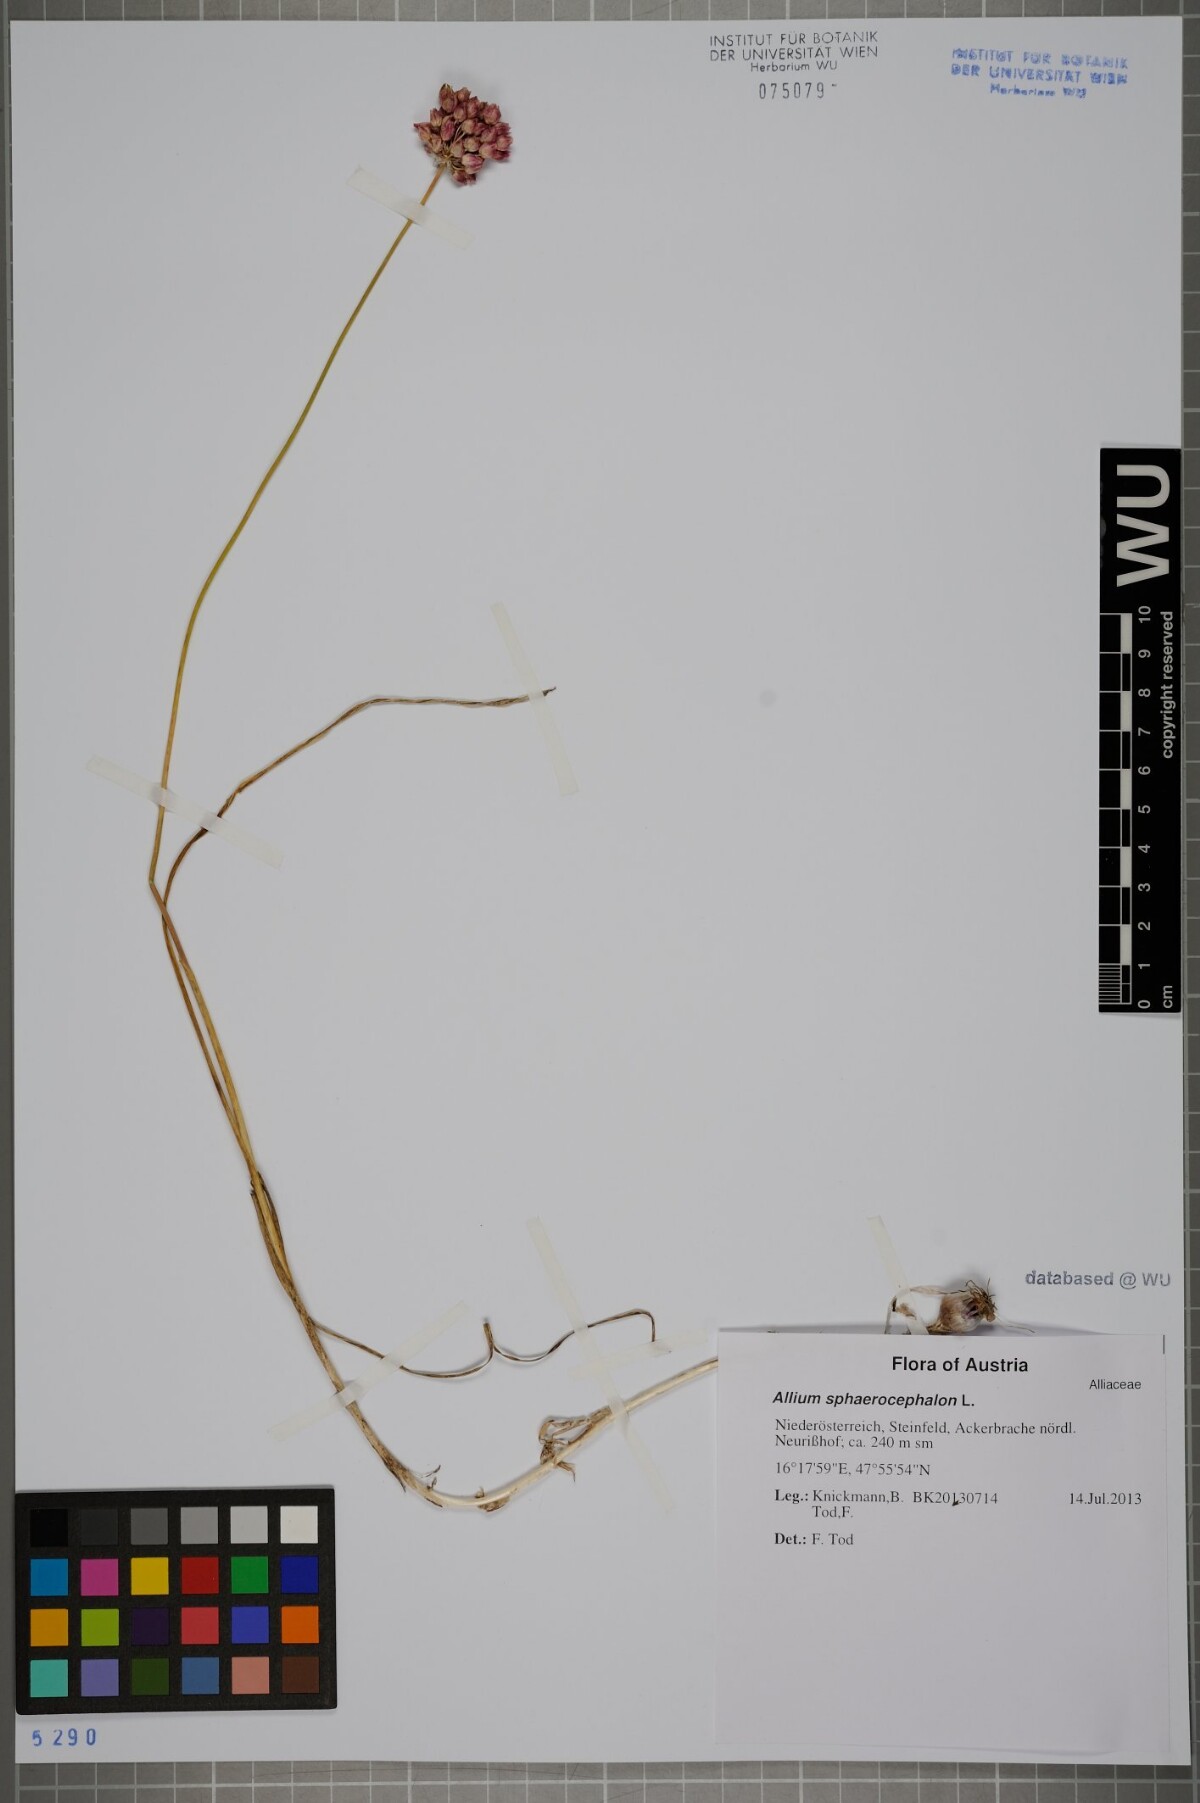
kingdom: Plantae
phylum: Tracheophyta
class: Liliopsida
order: Asparagales
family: Amaryllidaceae
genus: Allium
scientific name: Allium sphaerocephalon
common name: Round-headed leek
